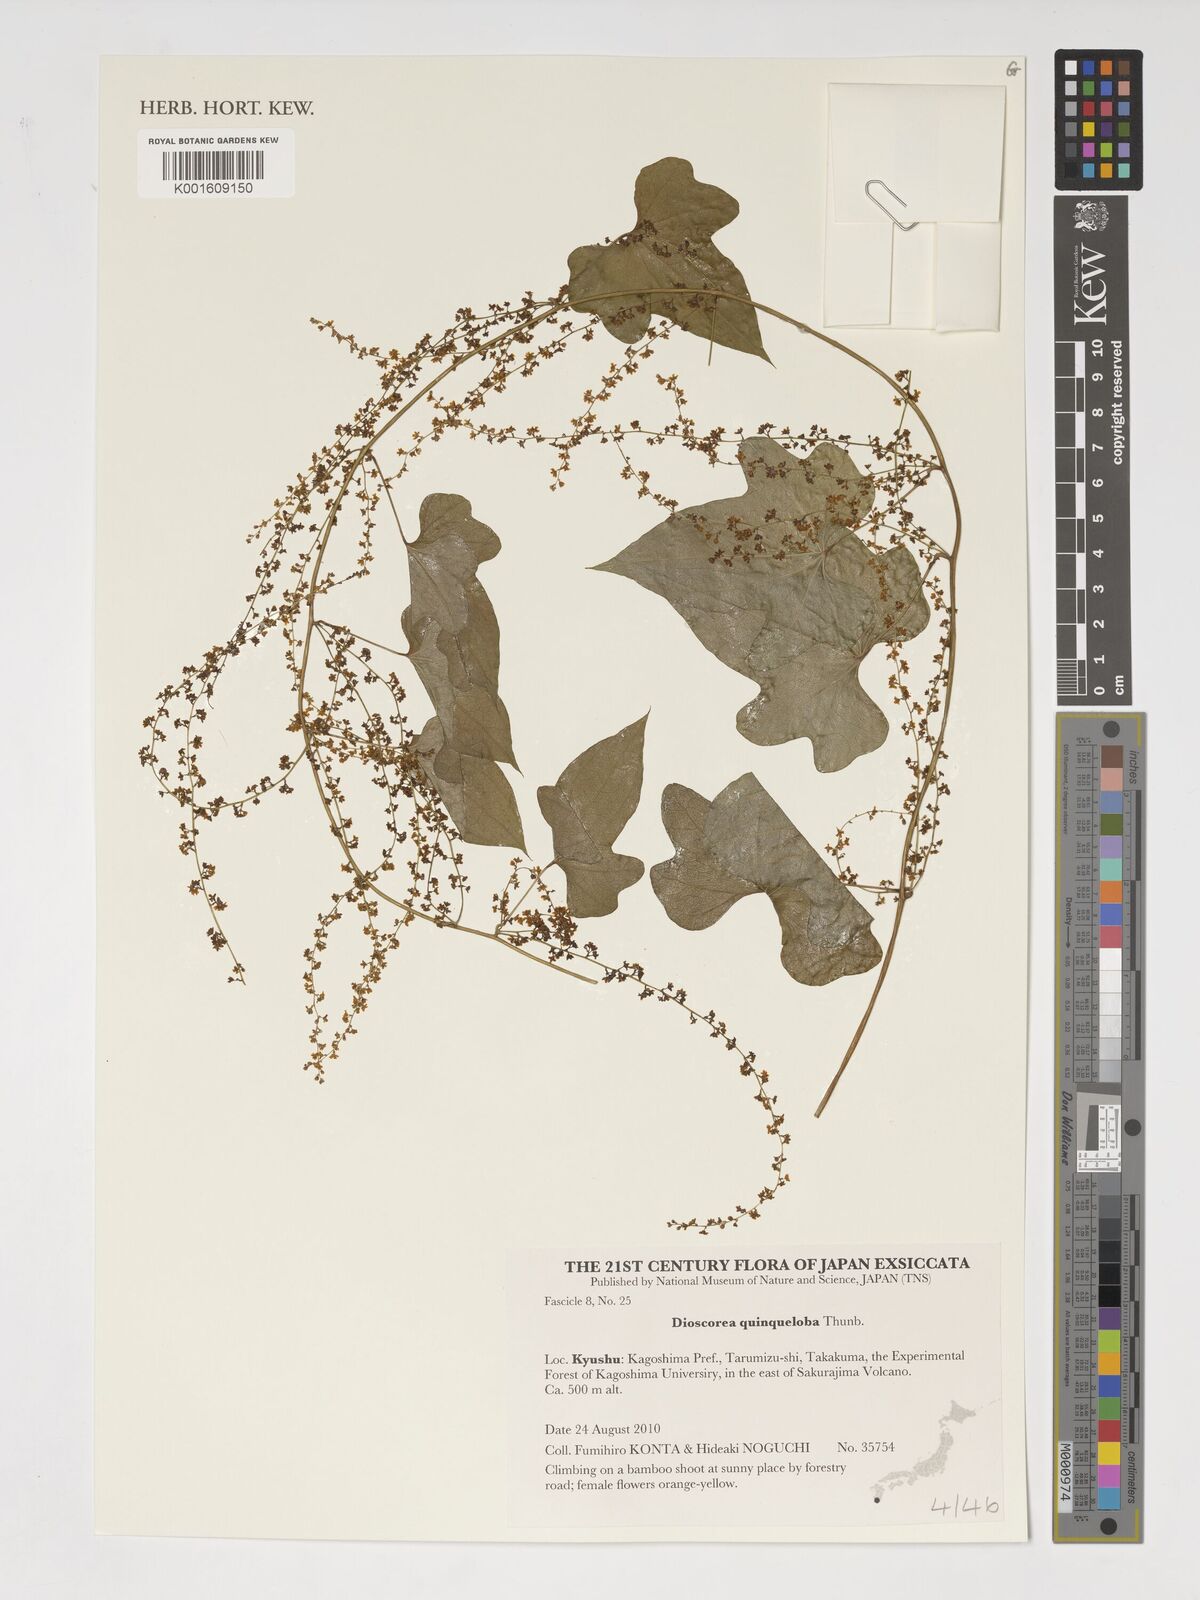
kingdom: Plantae
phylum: Tracheophyta
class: Liliopsida
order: Dioscoreales
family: Dioscoreaceae
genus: Dioscorea
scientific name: Dioscorea quinquelobata
